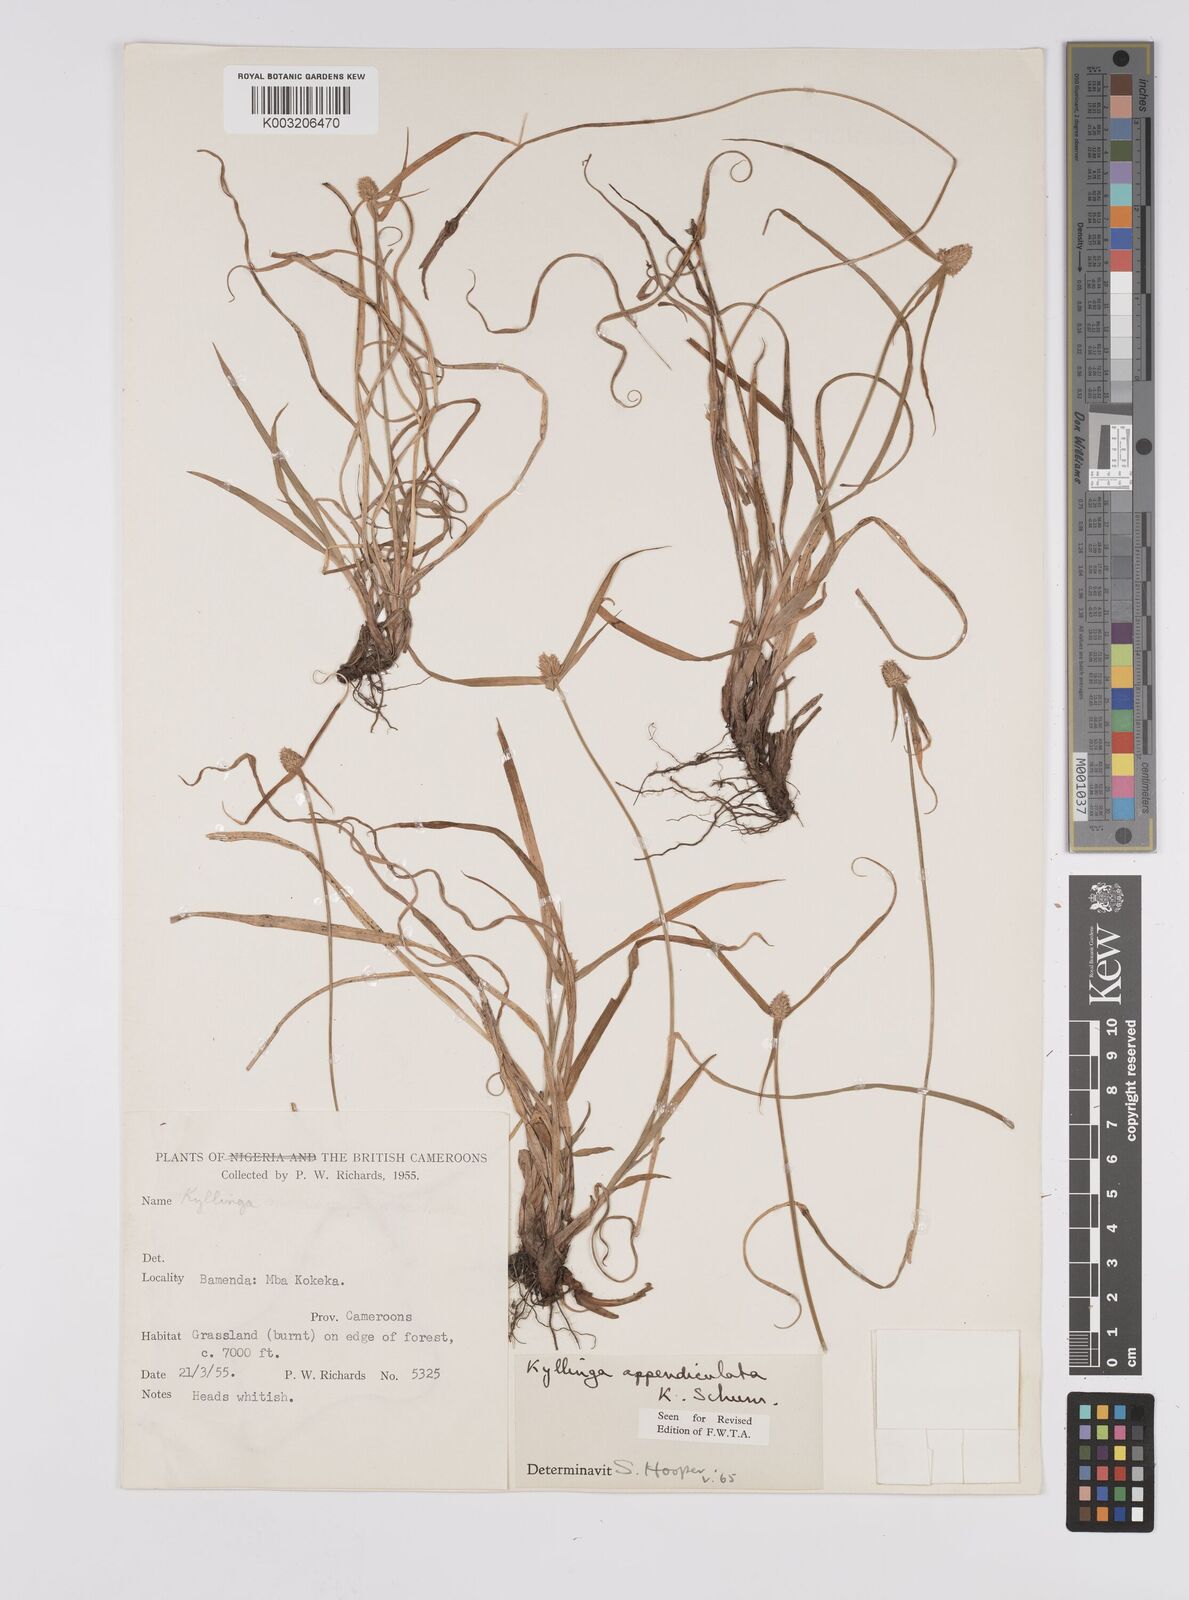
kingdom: Plantae
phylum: Tracheophyta
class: Liliopsida
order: Poales
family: Cyperaceae
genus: Cyperus
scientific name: Cyperus sesquiflorus
